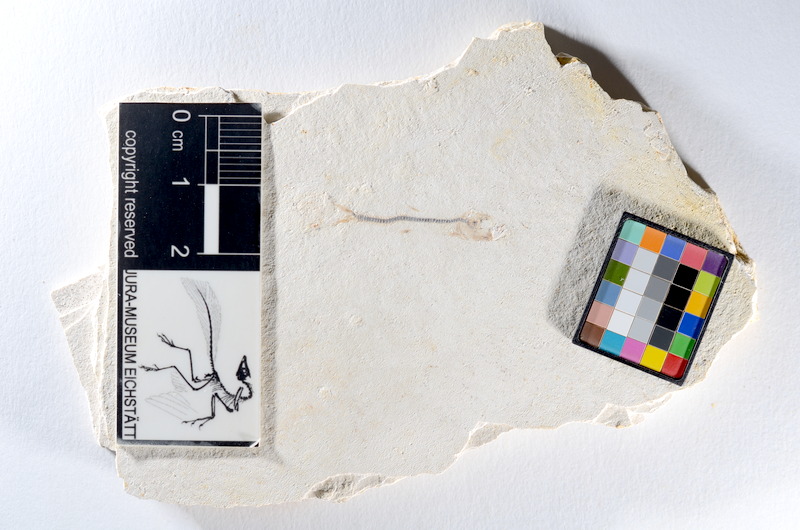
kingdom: Animalia
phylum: Chordata
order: Salmoniformes
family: Orthogonikleithridae
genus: Orthogonikleithrus
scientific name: Orthogonikleithrus hoelli
